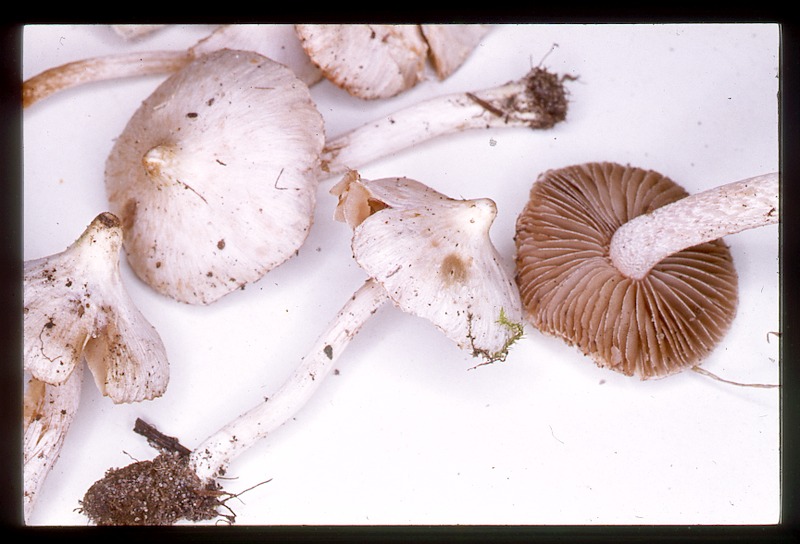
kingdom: Fungi
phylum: Basidiomycota
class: Agaricomycetes
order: Agaricales
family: Inocybaceae
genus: Inocybe
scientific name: Inocybe armeniaca
